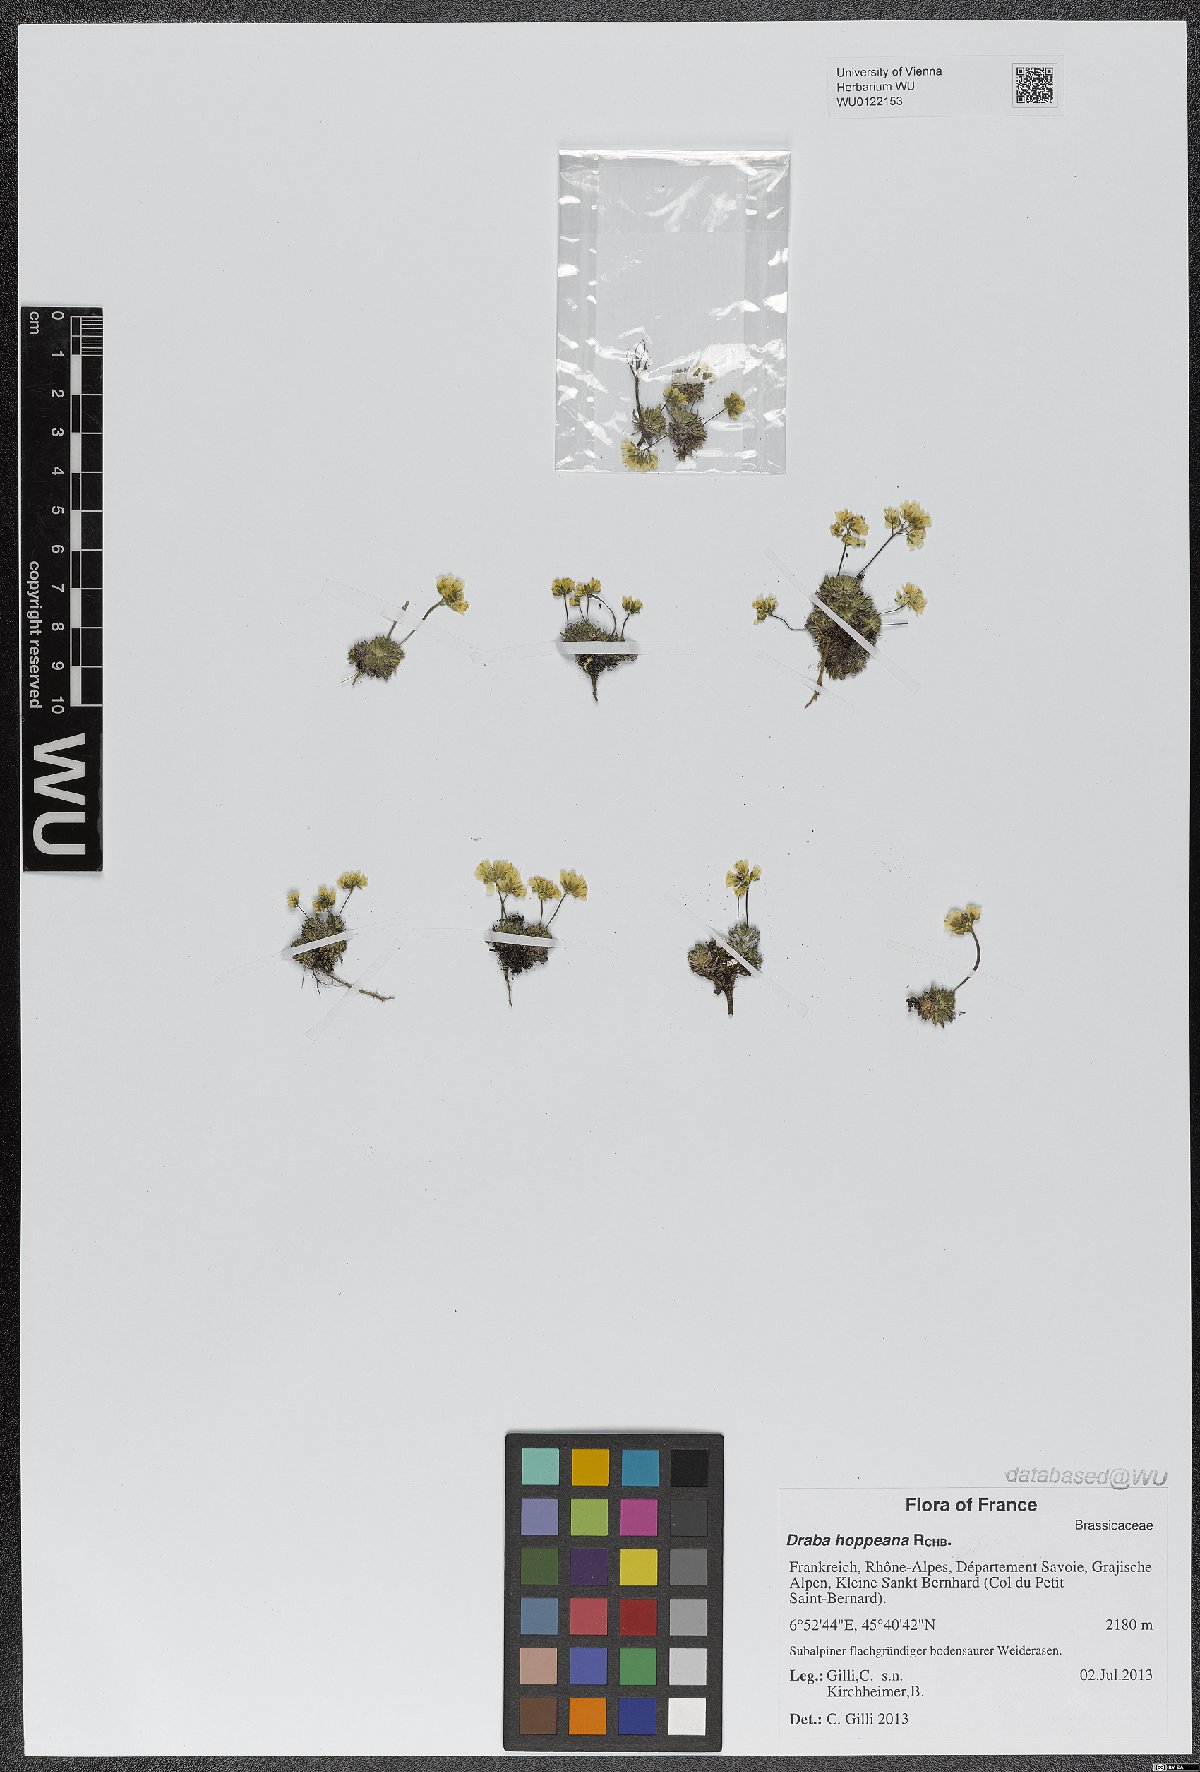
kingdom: Plantae
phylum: Tracheophyta
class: Magnoliopsida
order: Brassicales
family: Brassicaceae
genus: Draba
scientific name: Draba hoppeana
